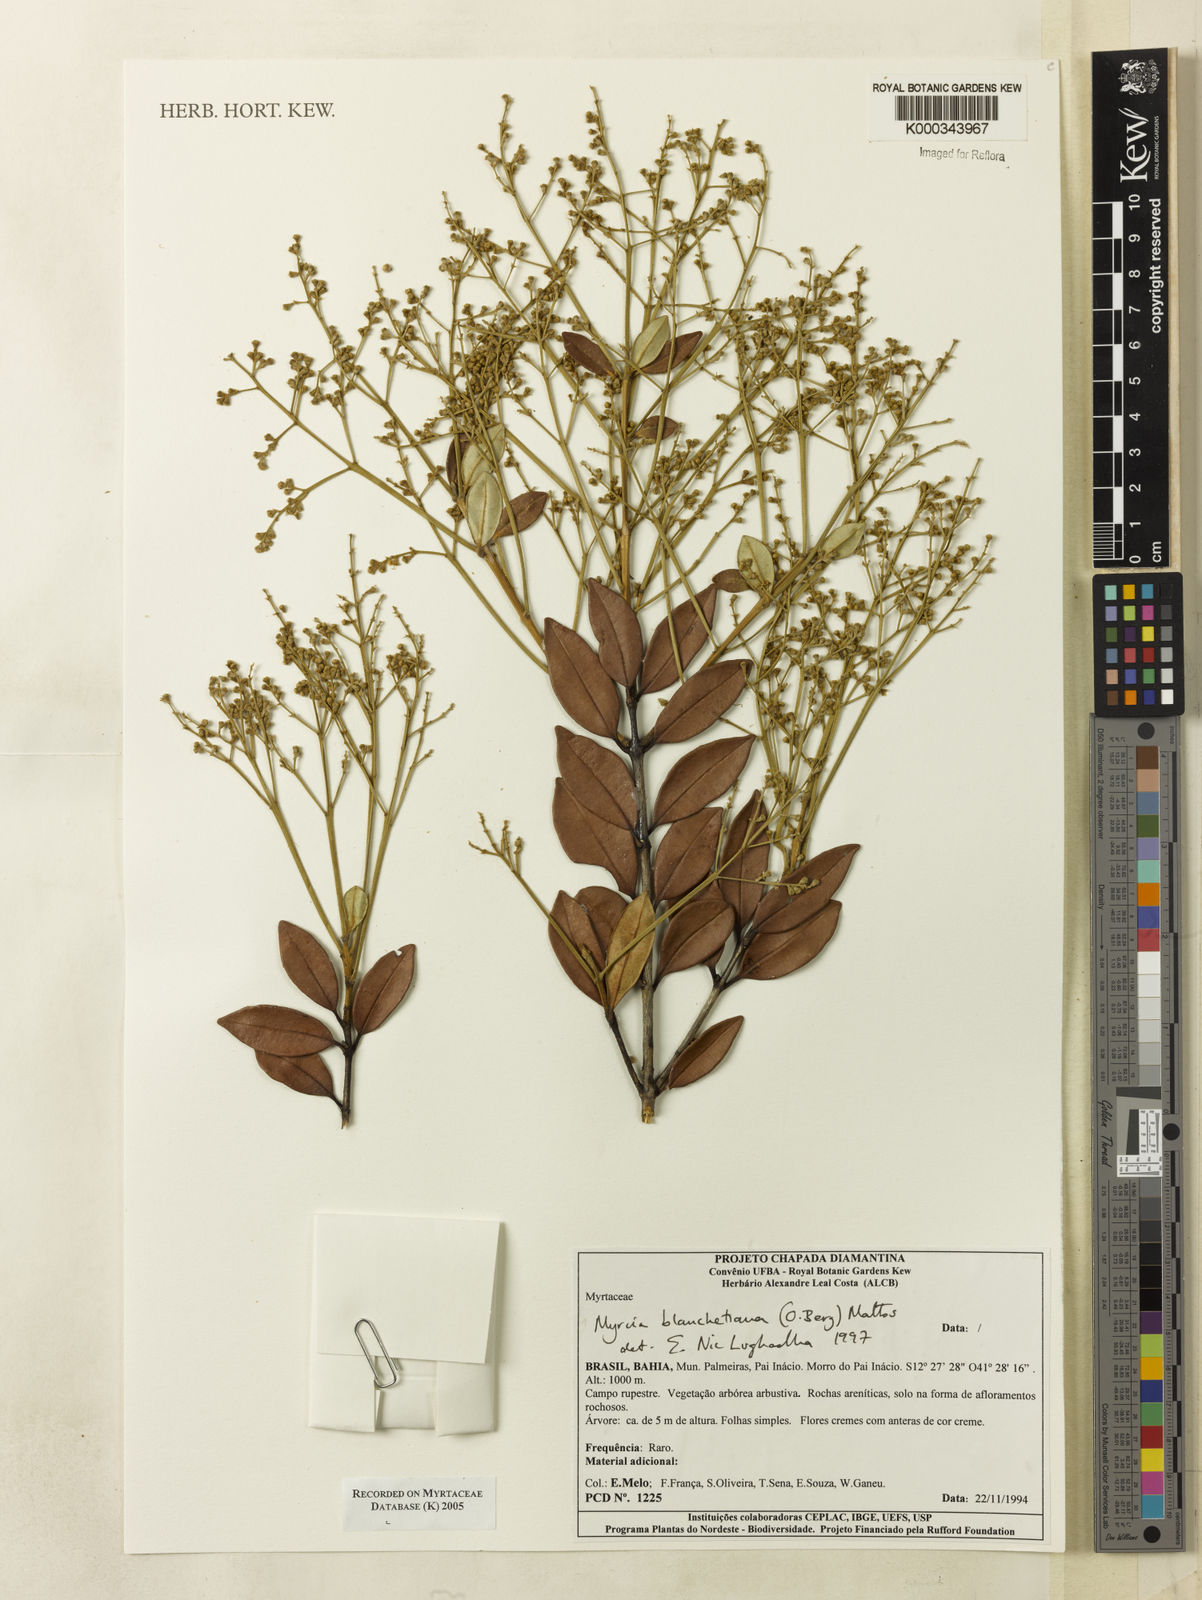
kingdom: Plantae
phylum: Tracheophyta
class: Magnoliopsida
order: Myrtales
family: Myrtaceae
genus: Myrcia
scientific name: Myrcia blanchetiana
